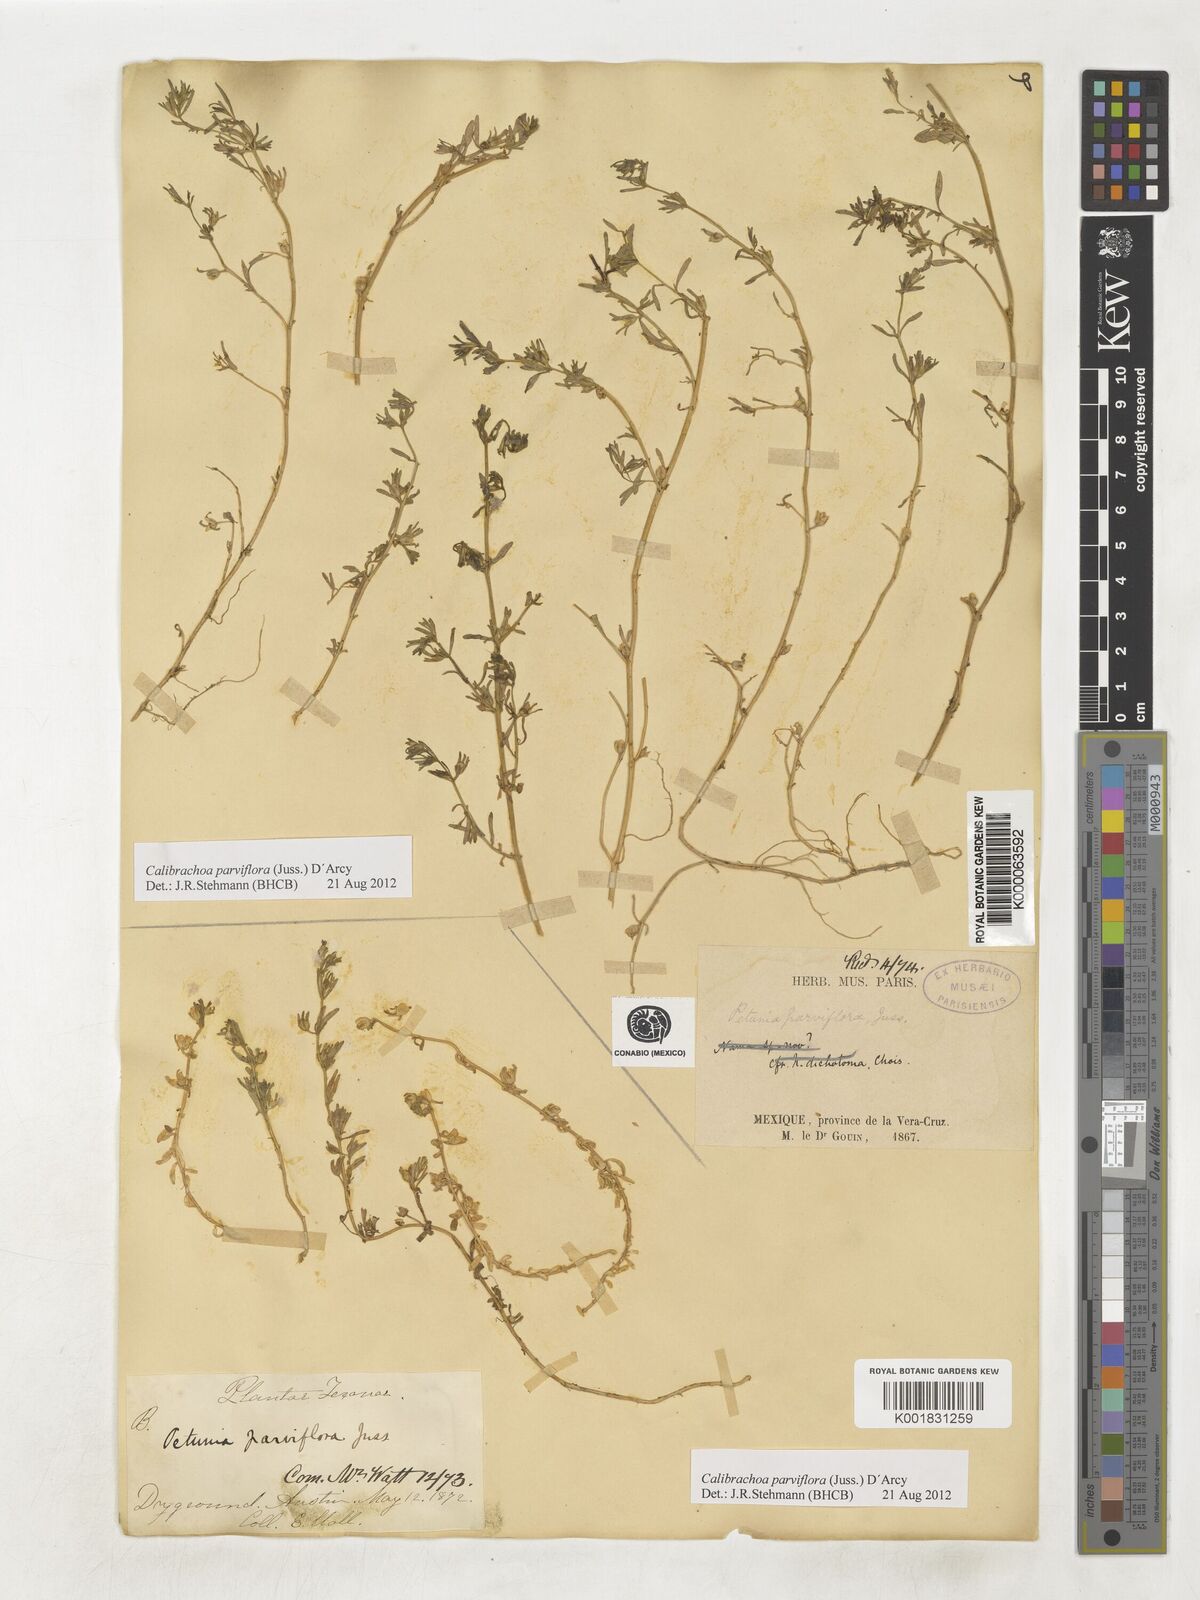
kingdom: Plantae
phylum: Tracheophyta
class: Magnoliopsida
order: Solanales
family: Solanaceae
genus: Calibrachoa
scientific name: Calibrachoa parviflora
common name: Seaside petunia
